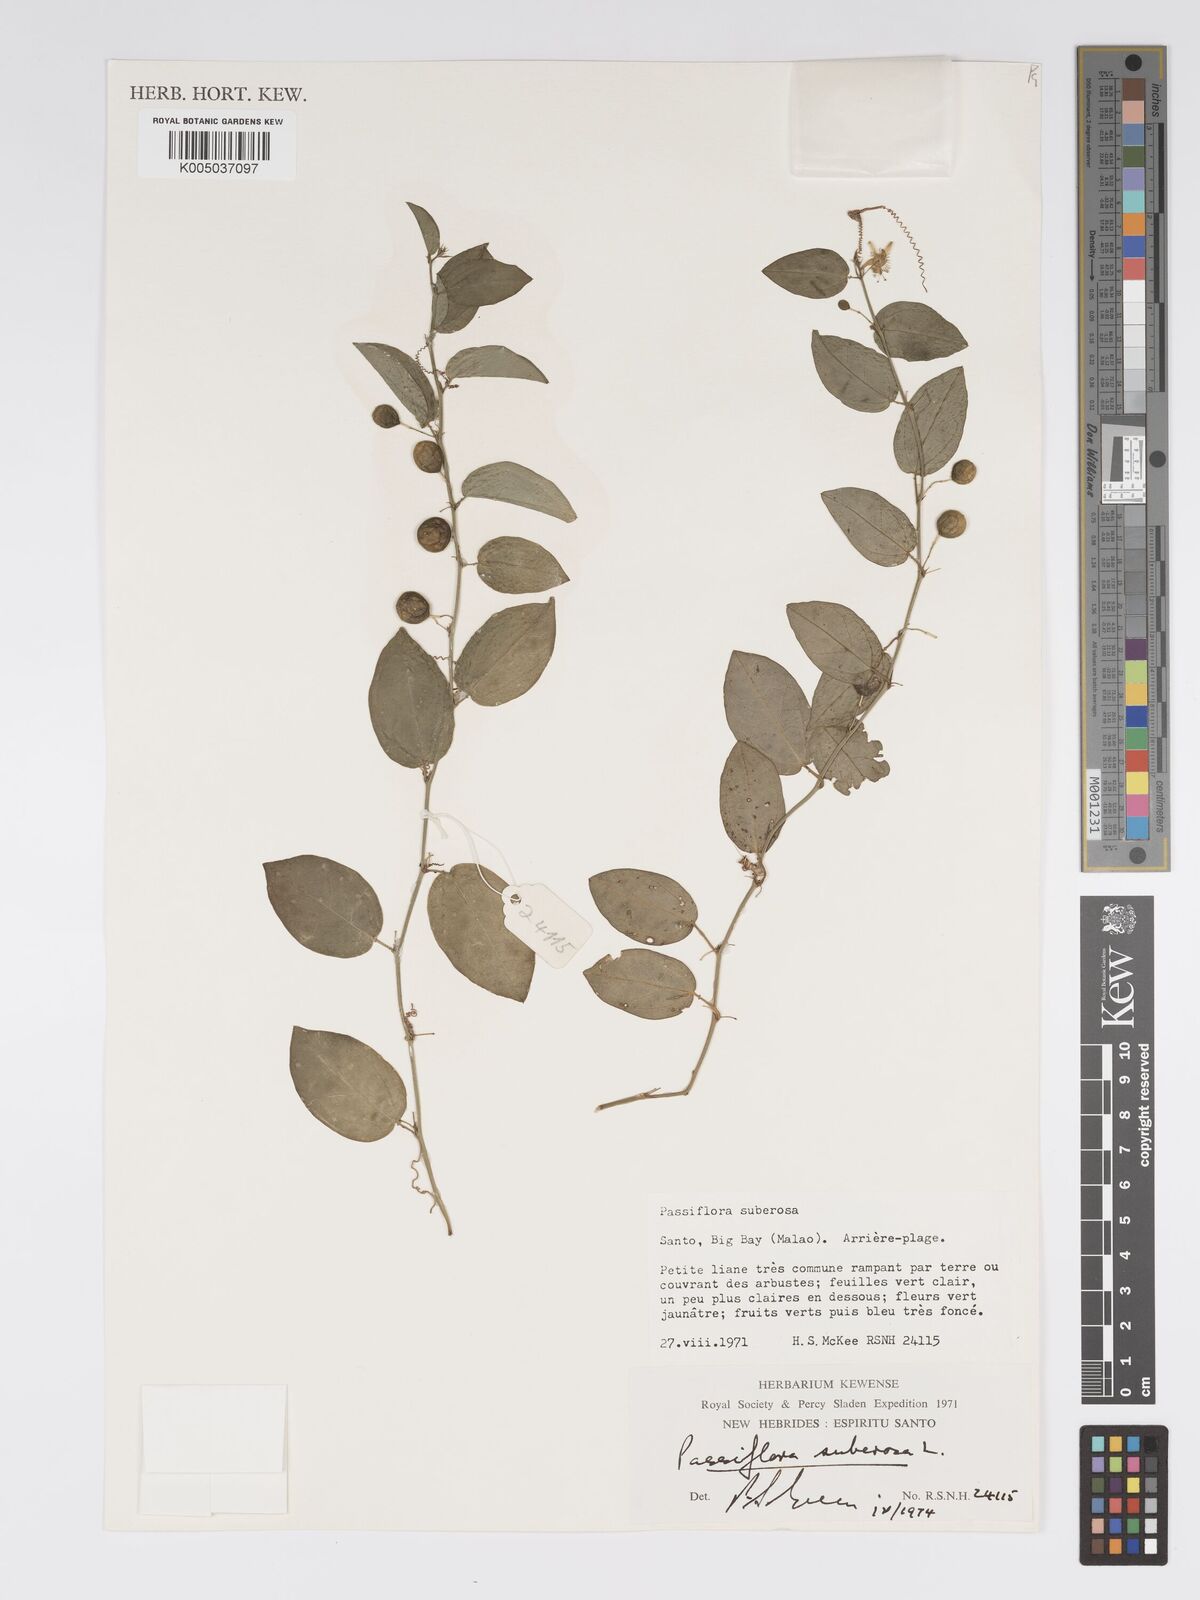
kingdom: Plantae
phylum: Tracheophyta
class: Magnoliopsida
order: Malpighiales
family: Passifloraceae
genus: Passiflora
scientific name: Passiflora suberosa
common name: Wild passionfruit
